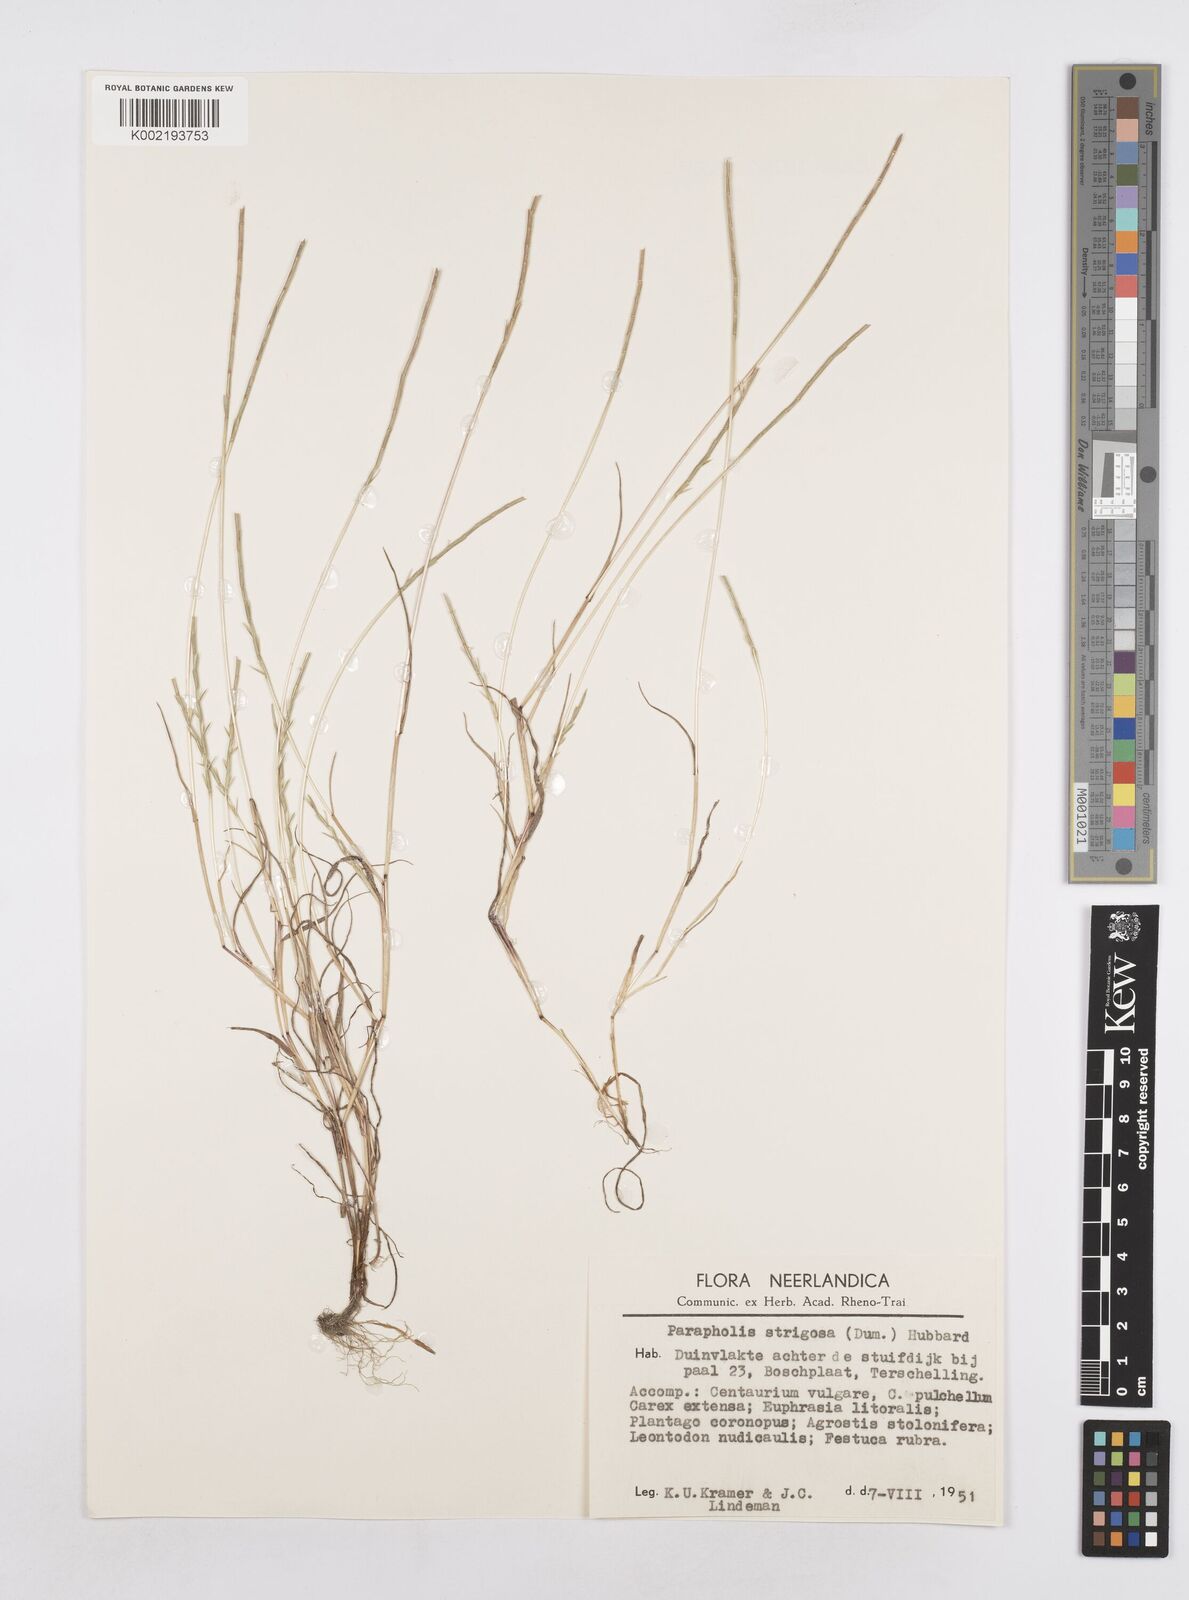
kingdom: Plantae
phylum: Tracheophyta
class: Liliopsida
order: Poales
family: Poaceae
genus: Parapholis
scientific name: Parapholis strigosa
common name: Hard-grass
